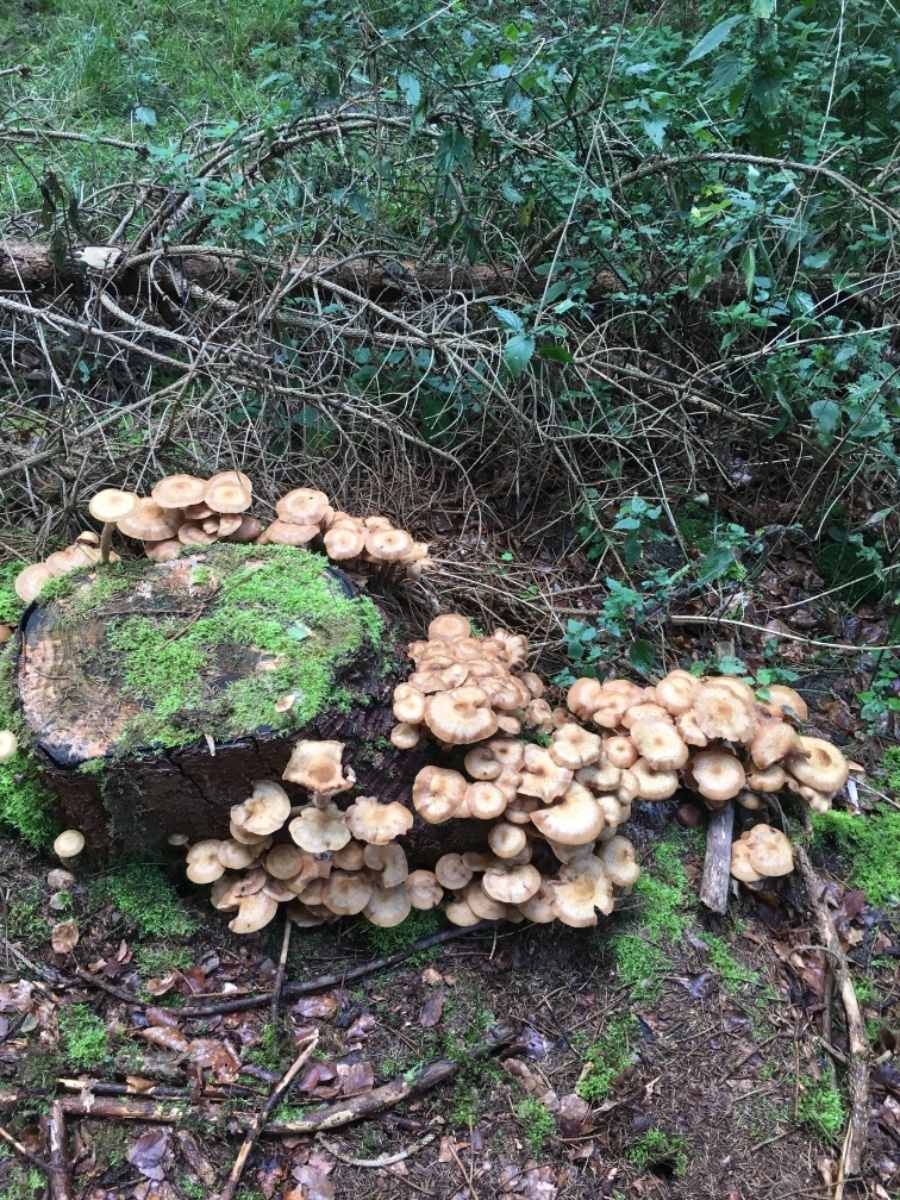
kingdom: Fungi
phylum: Basidiomycota
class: Agaricomycetes
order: Agaricales
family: Physalacriaceae
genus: Armillaria
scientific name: Armillaria ostoyae
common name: mørk honningsvamp
